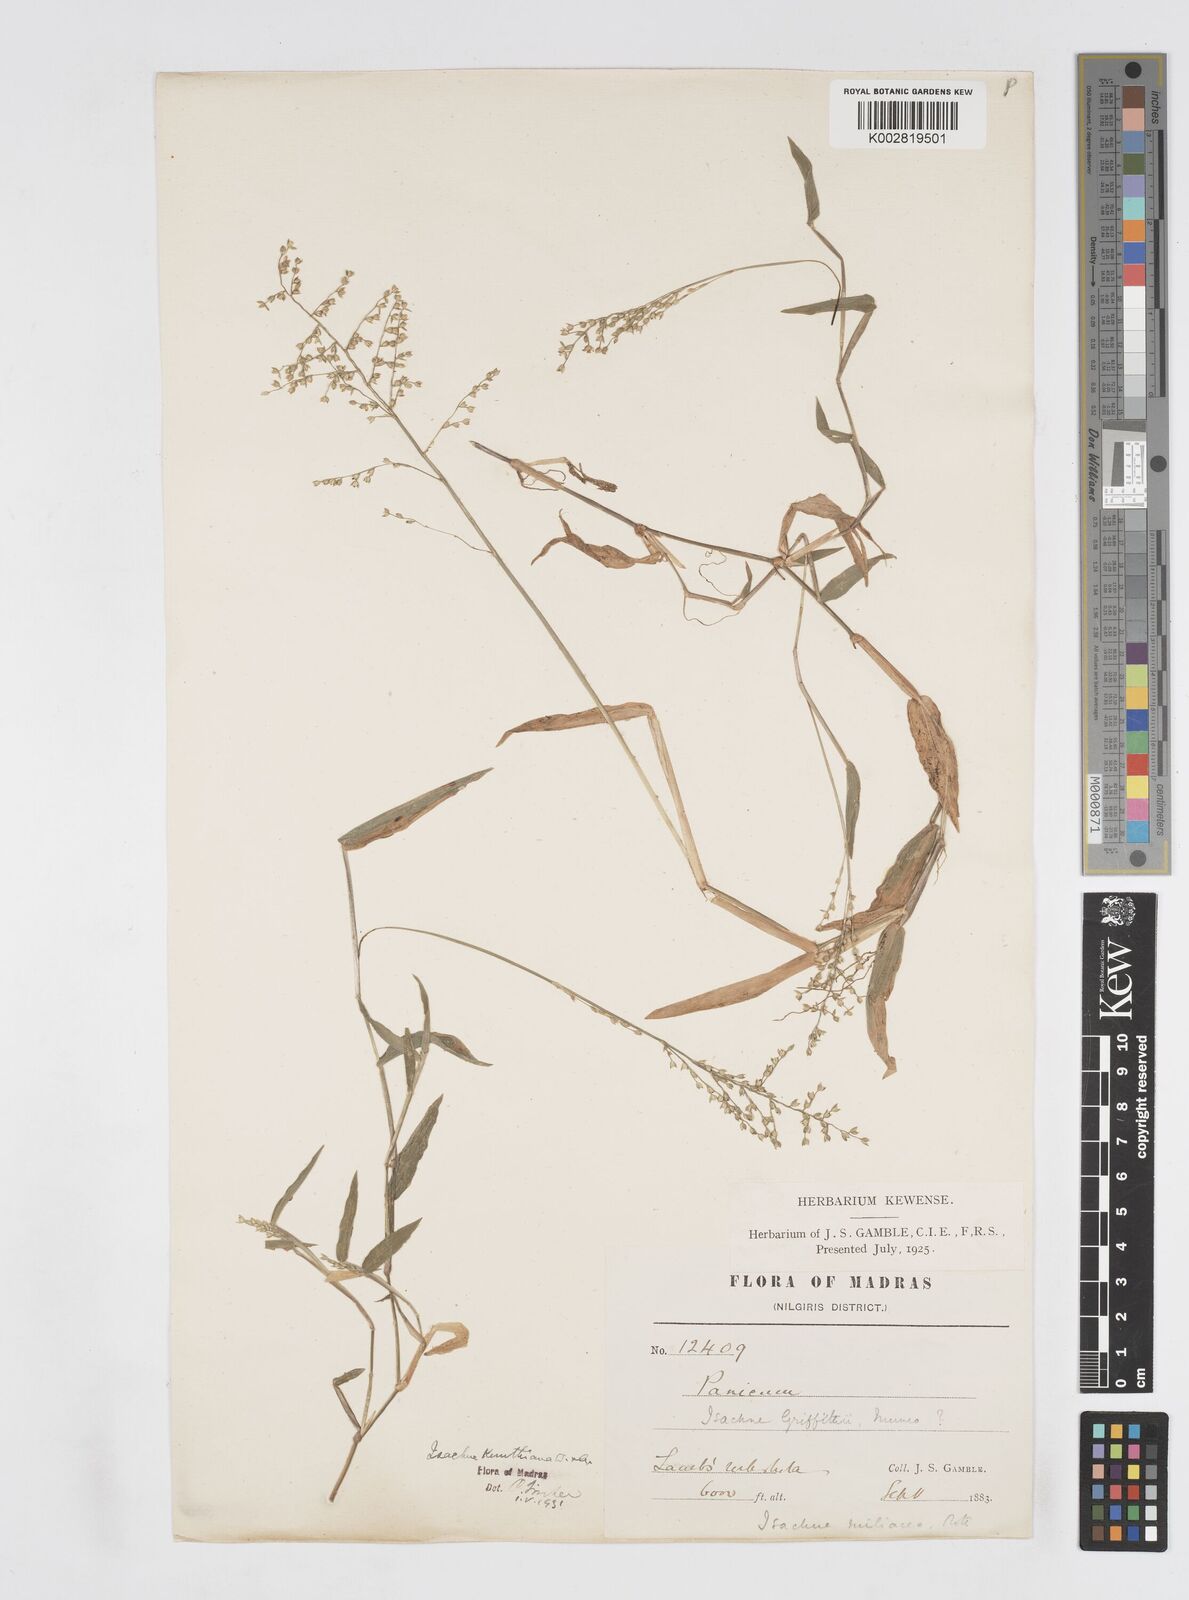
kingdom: Plantae
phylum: Tracheophyta
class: Liliopsida
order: Poales
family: Poaceae
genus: Isachne
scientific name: Isachne kunthiana
